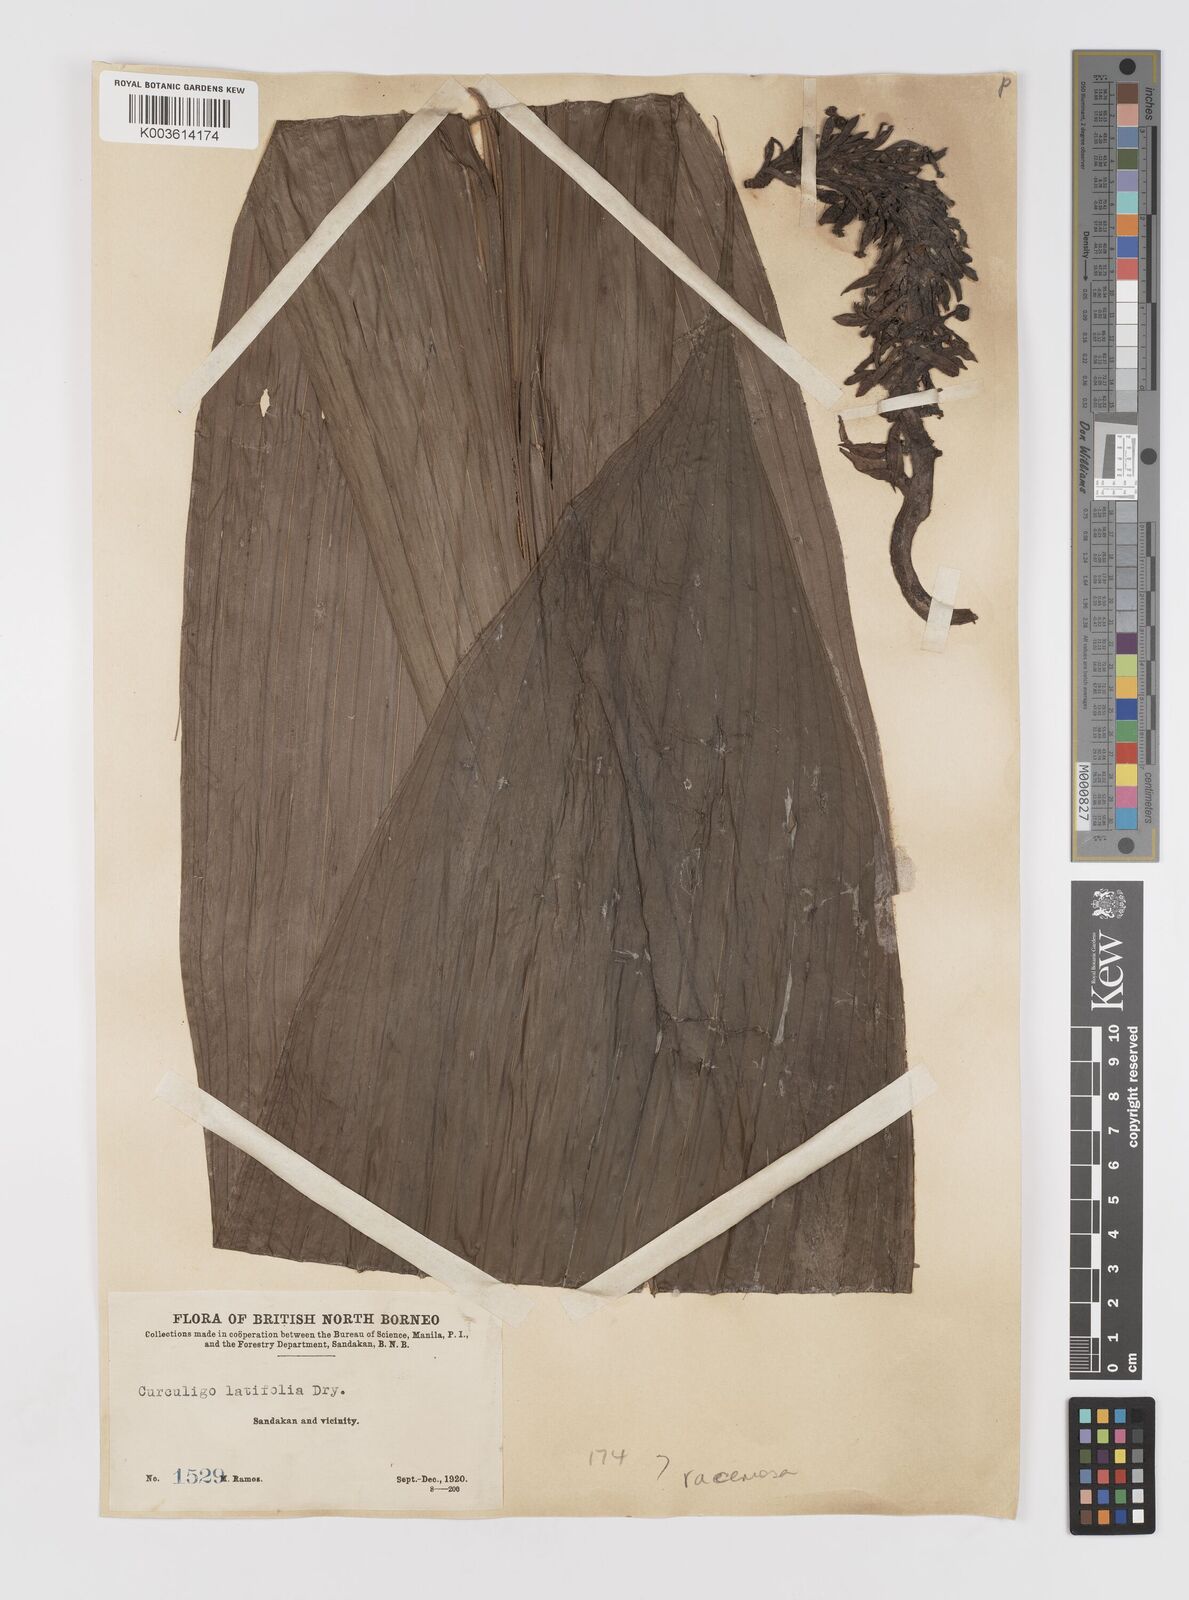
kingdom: Plantae
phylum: Tracheophyta
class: Liliopsida
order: Asparagales
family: Hypoxidaceae
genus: Curculigo
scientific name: Curculigo racemosa
